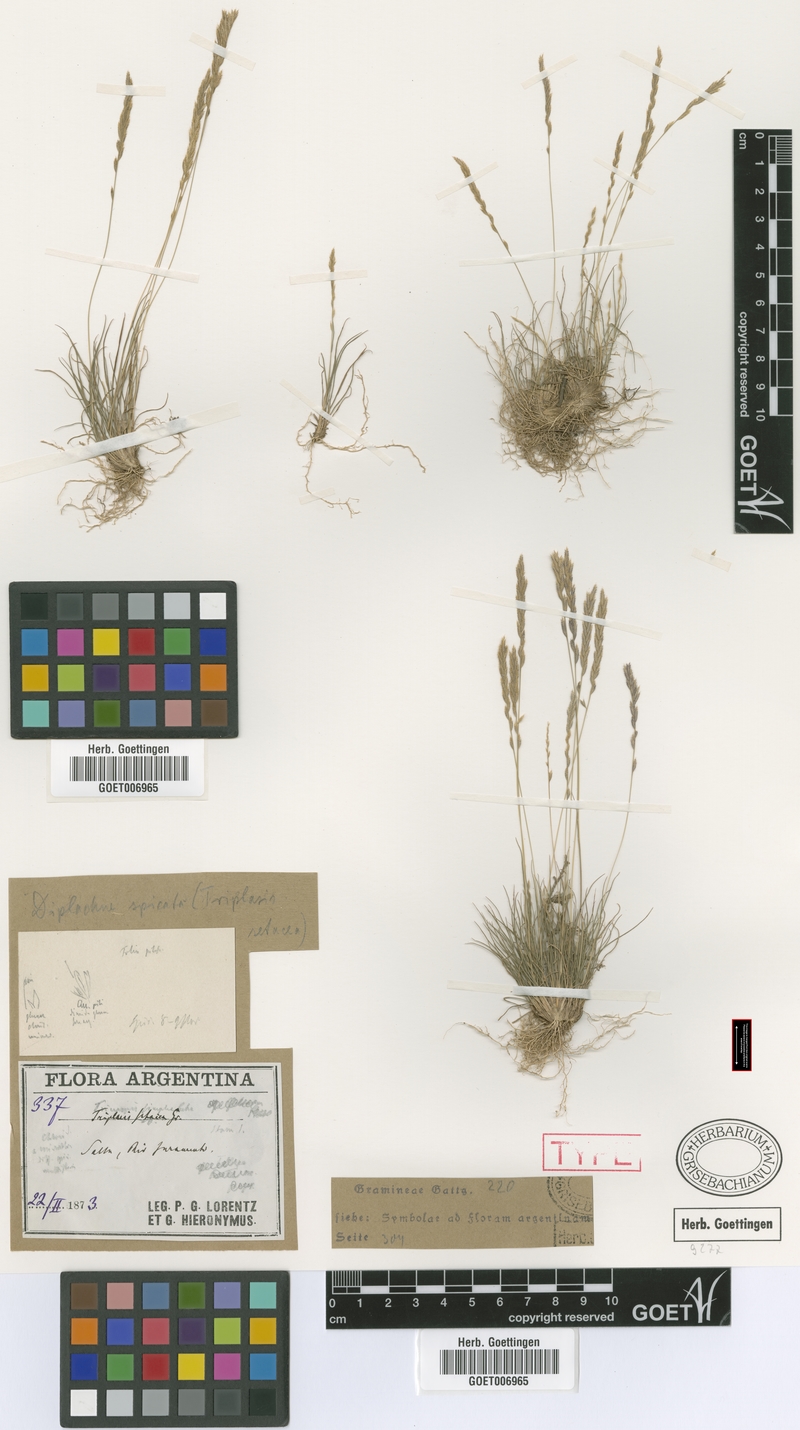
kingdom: Plantae
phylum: Tracheophyta
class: Liliopsida
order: Poales
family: Poaceae
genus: Tripogonella
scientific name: Tripogonella spicata
